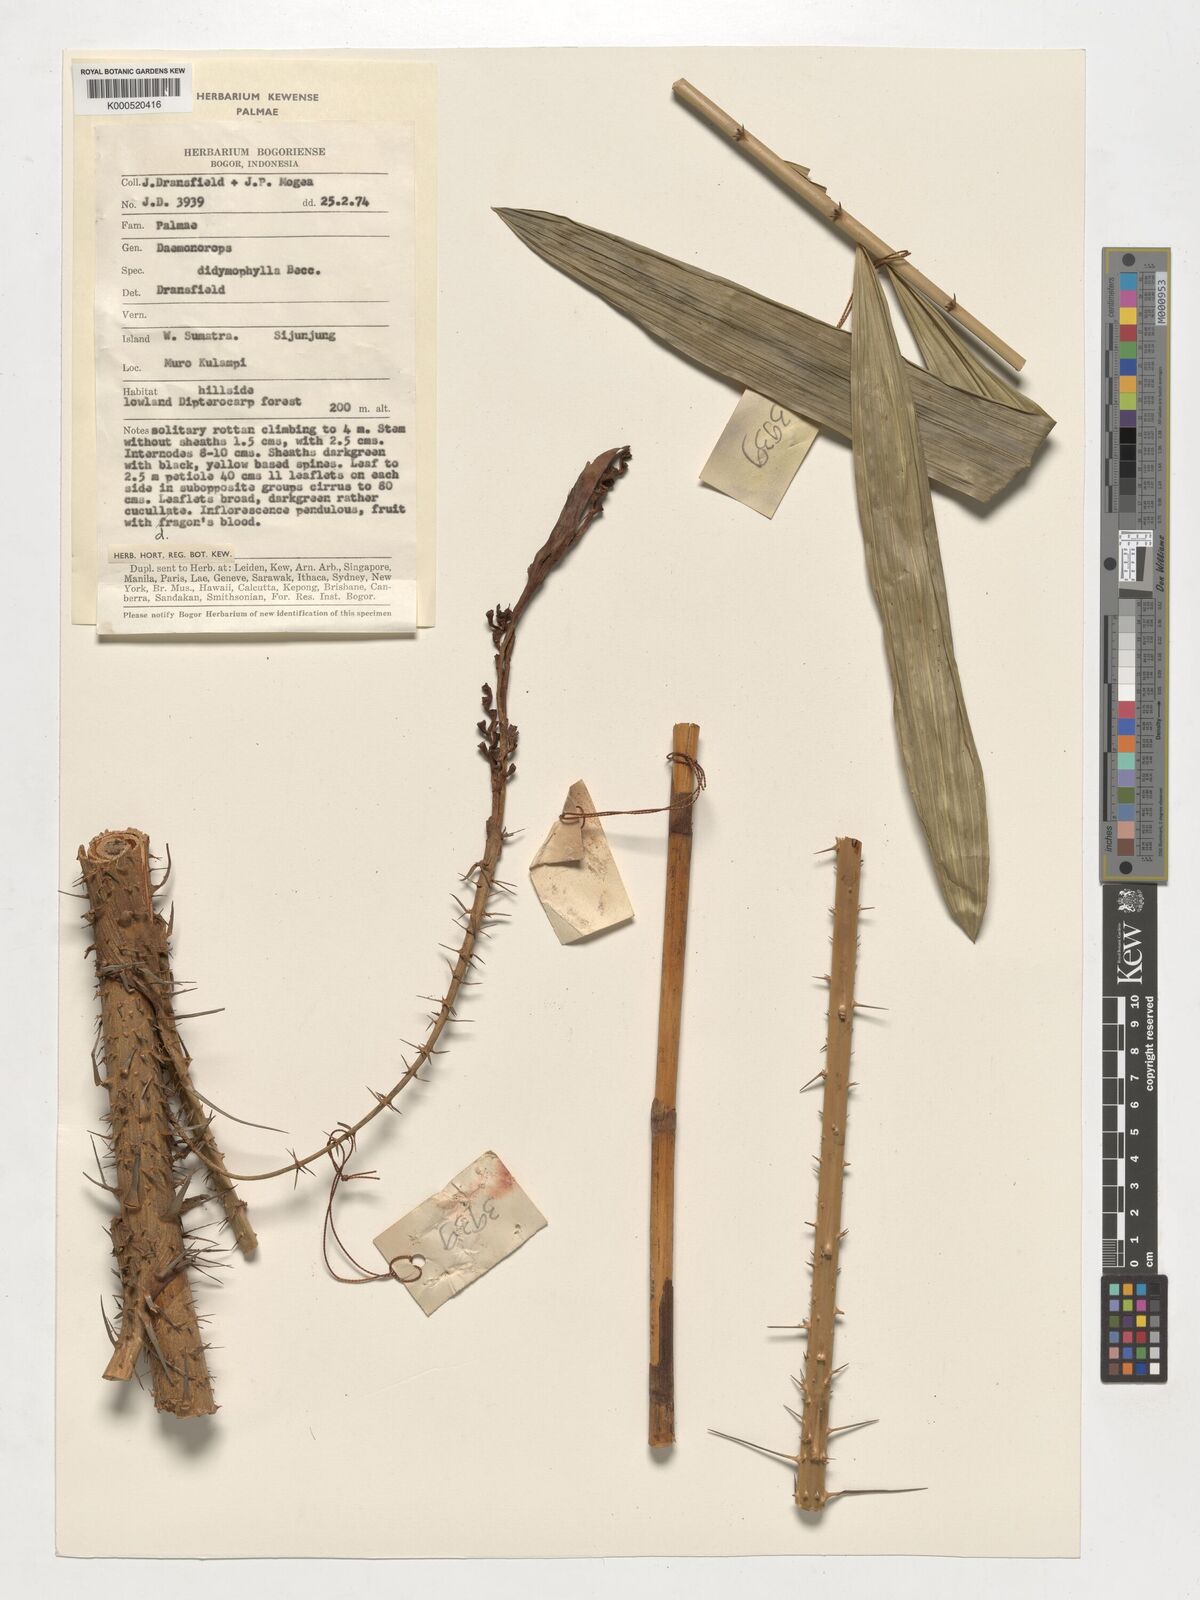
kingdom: Plantae
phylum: Tracheophyta
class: Liliopsida
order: Arecales
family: Arecaceae
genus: Calamus
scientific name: Calamus gracilipes
